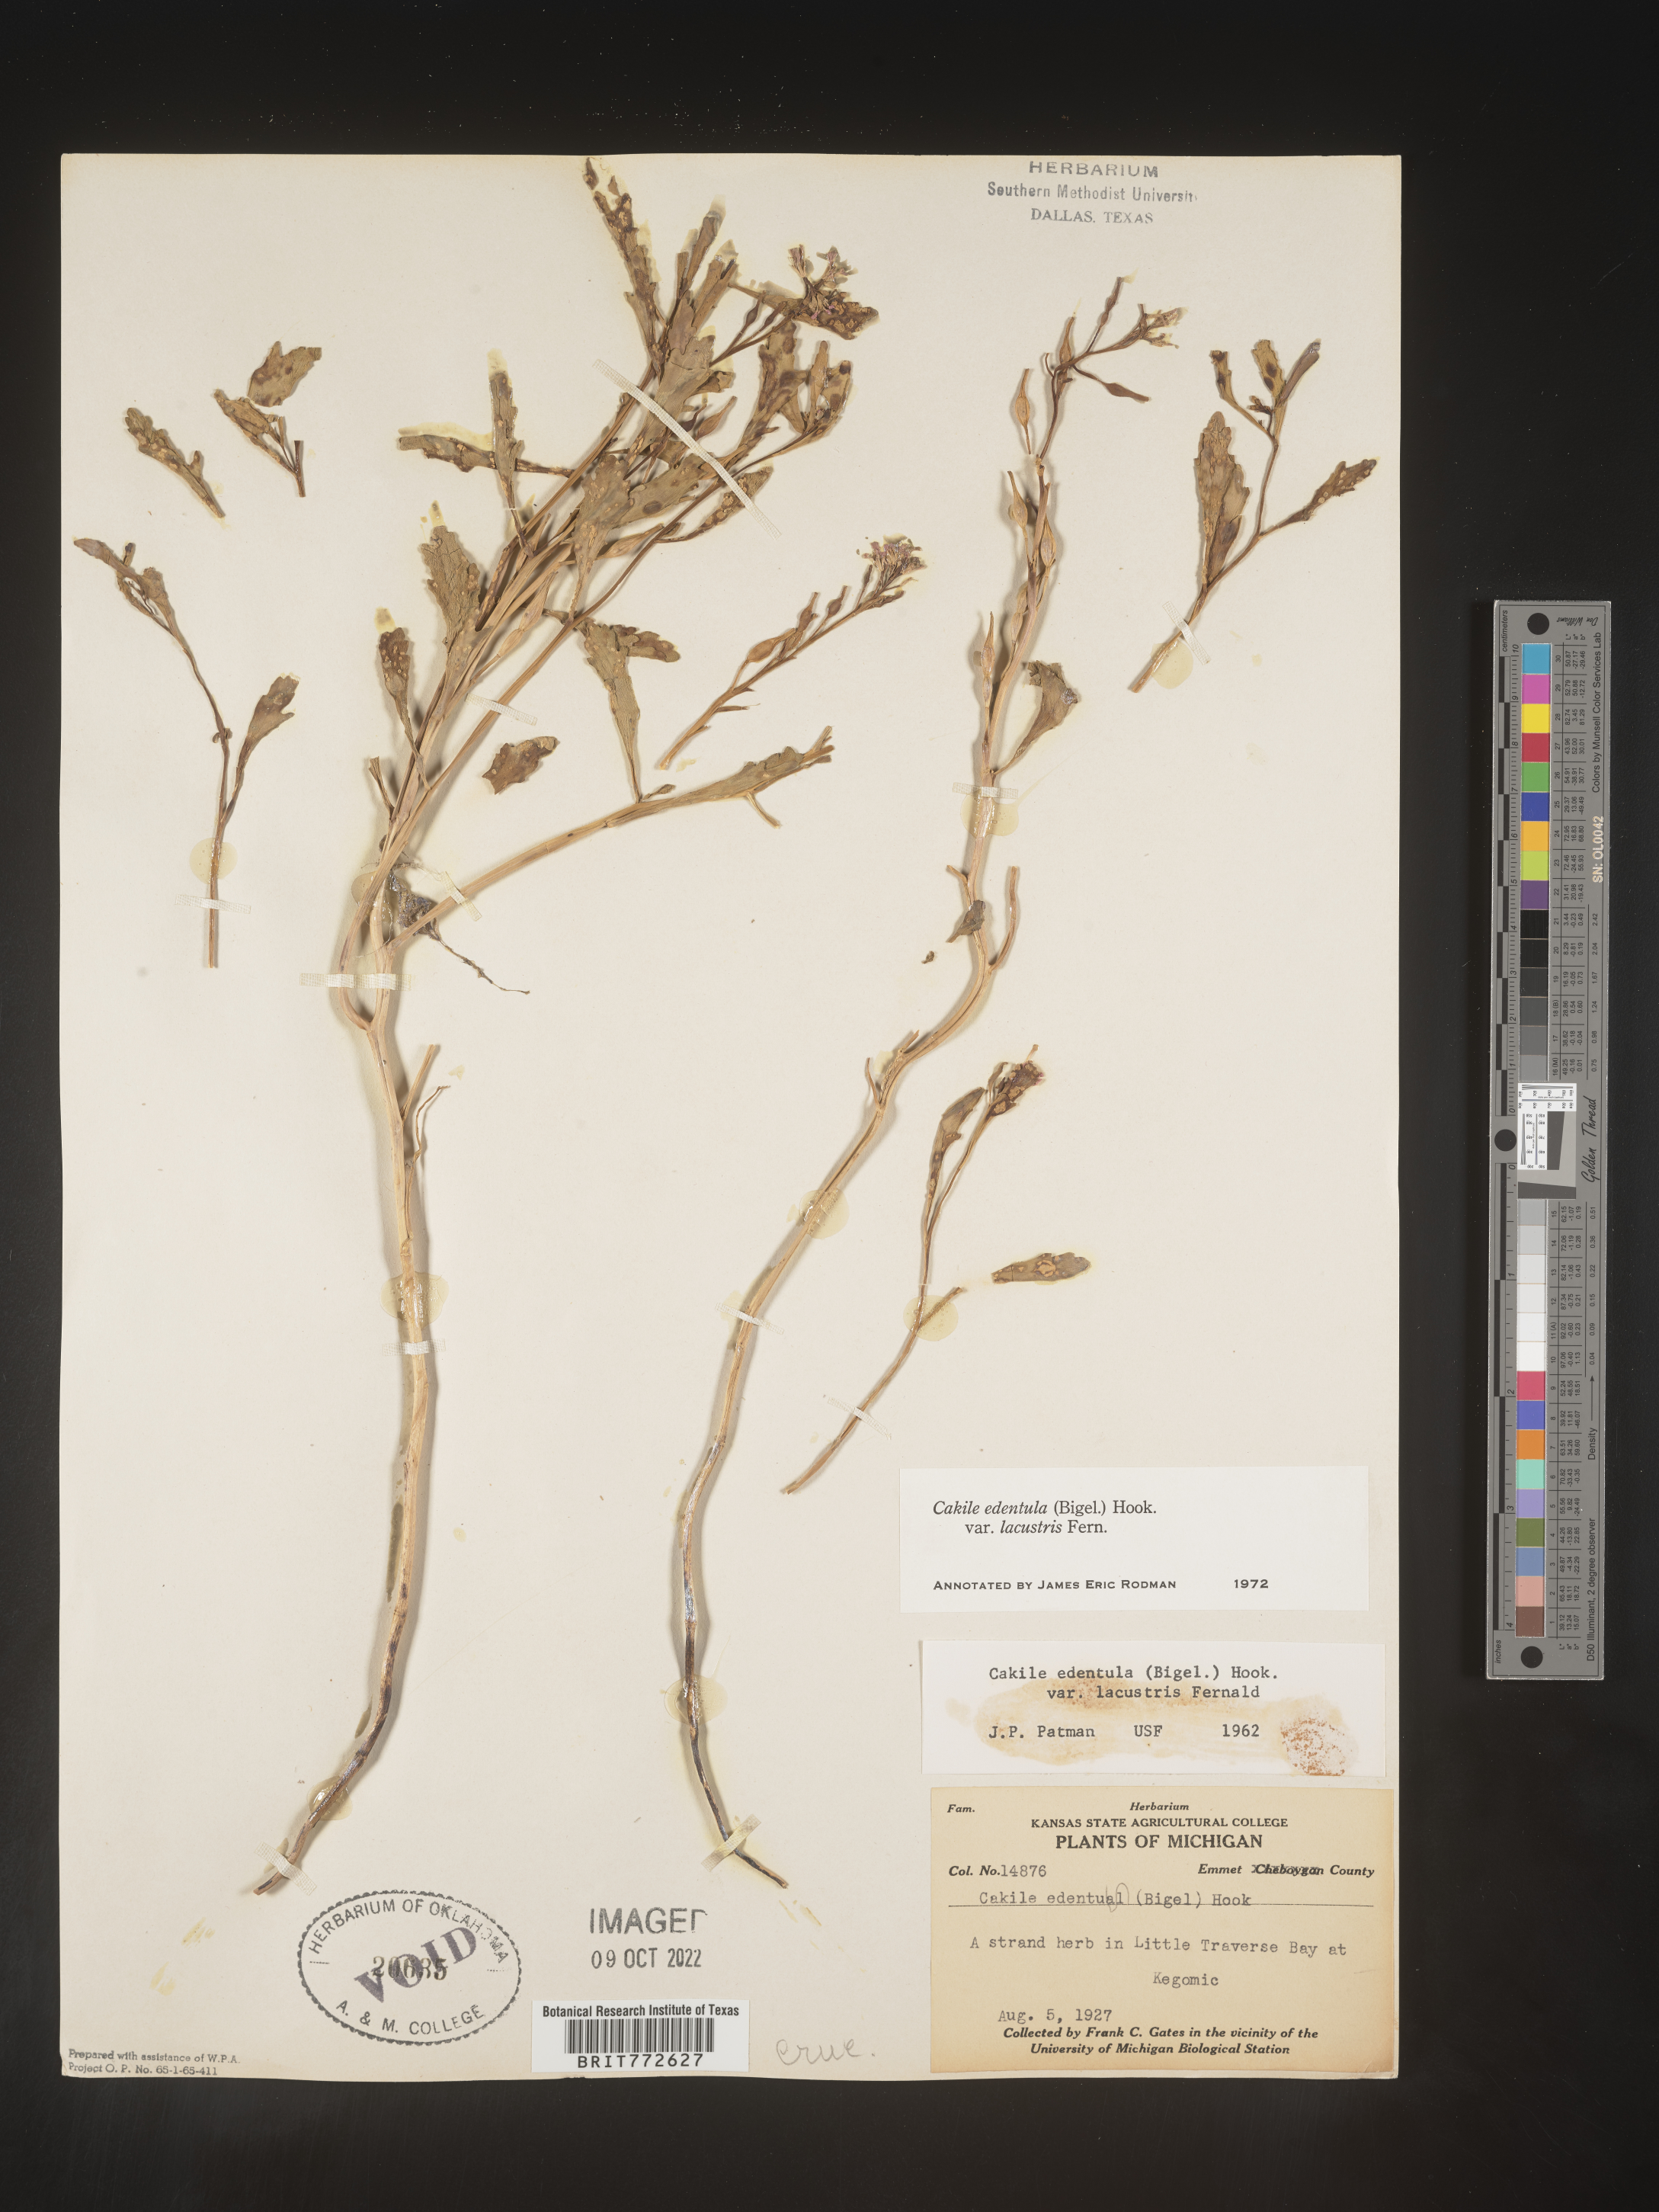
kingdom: Plantae
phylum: Tracheophyta
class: Magnoliopsida
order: Brassicales
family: Brassicaceae
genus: Cakile
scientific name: Cakile edentula
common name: American sea rocket
